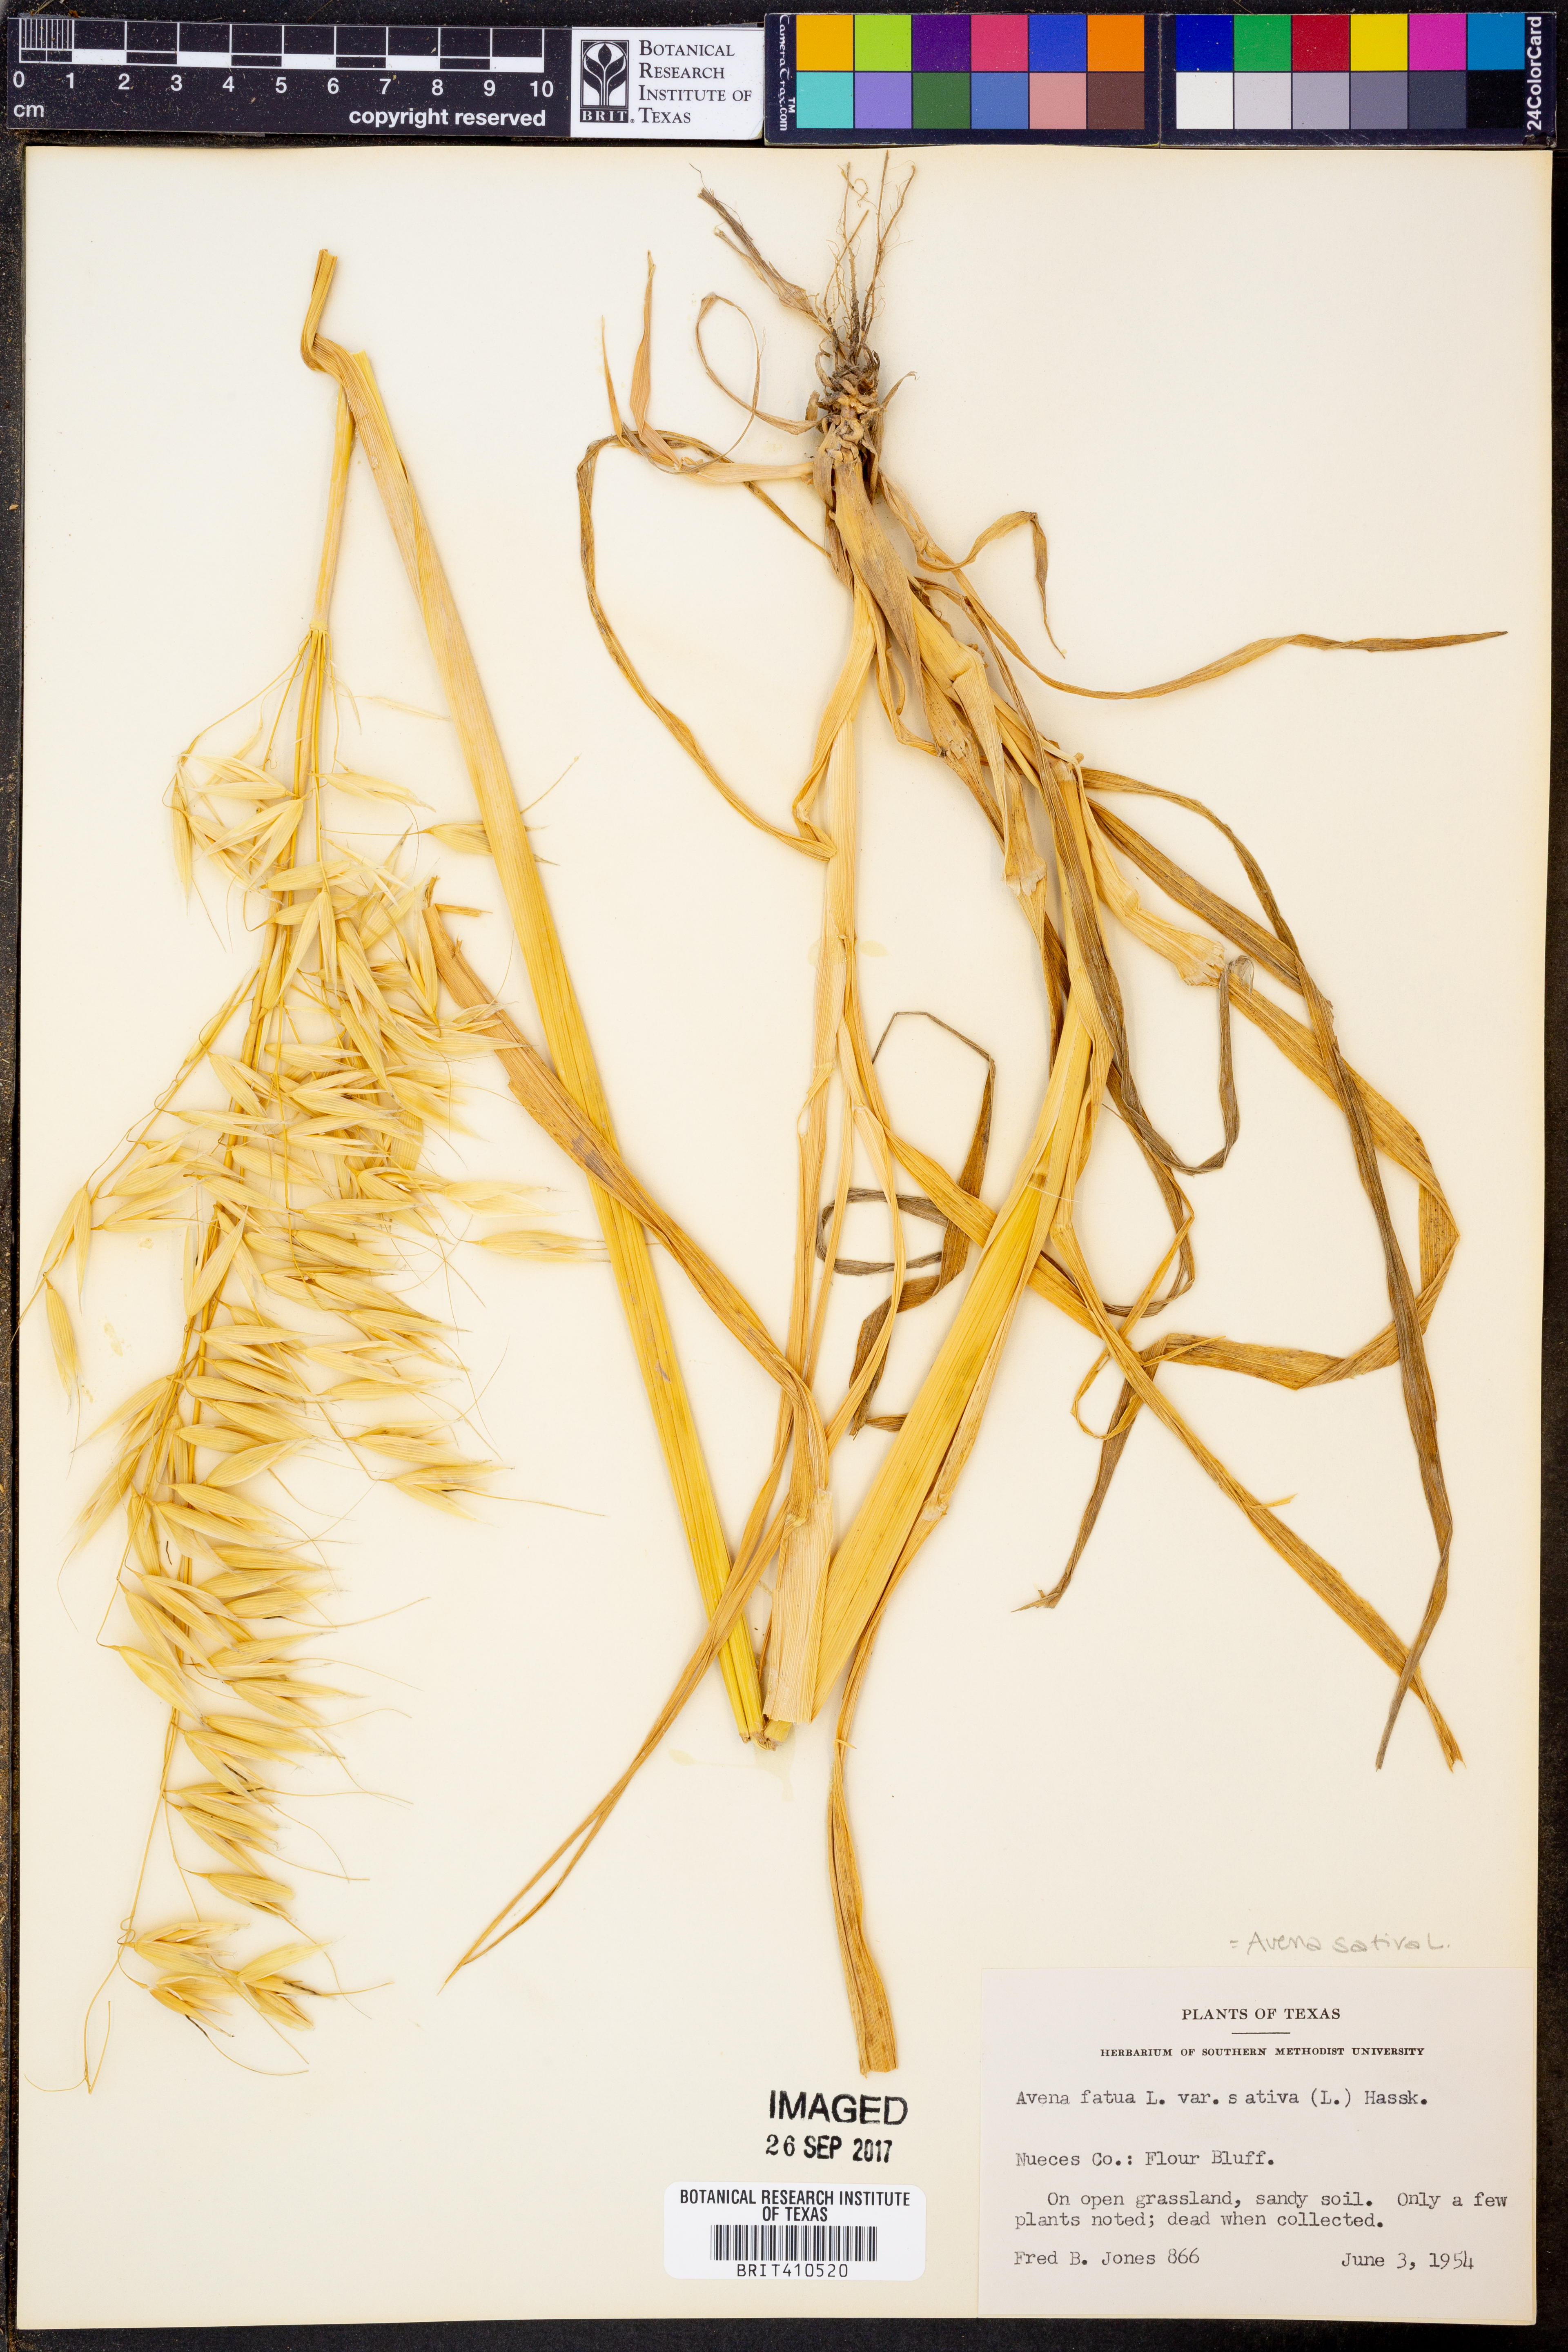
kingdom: Plantae
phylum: Tracheophyta
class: Liliopsida
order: Poales
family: Poaceae
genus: Avena
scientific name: Avena sativa
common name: Oat
